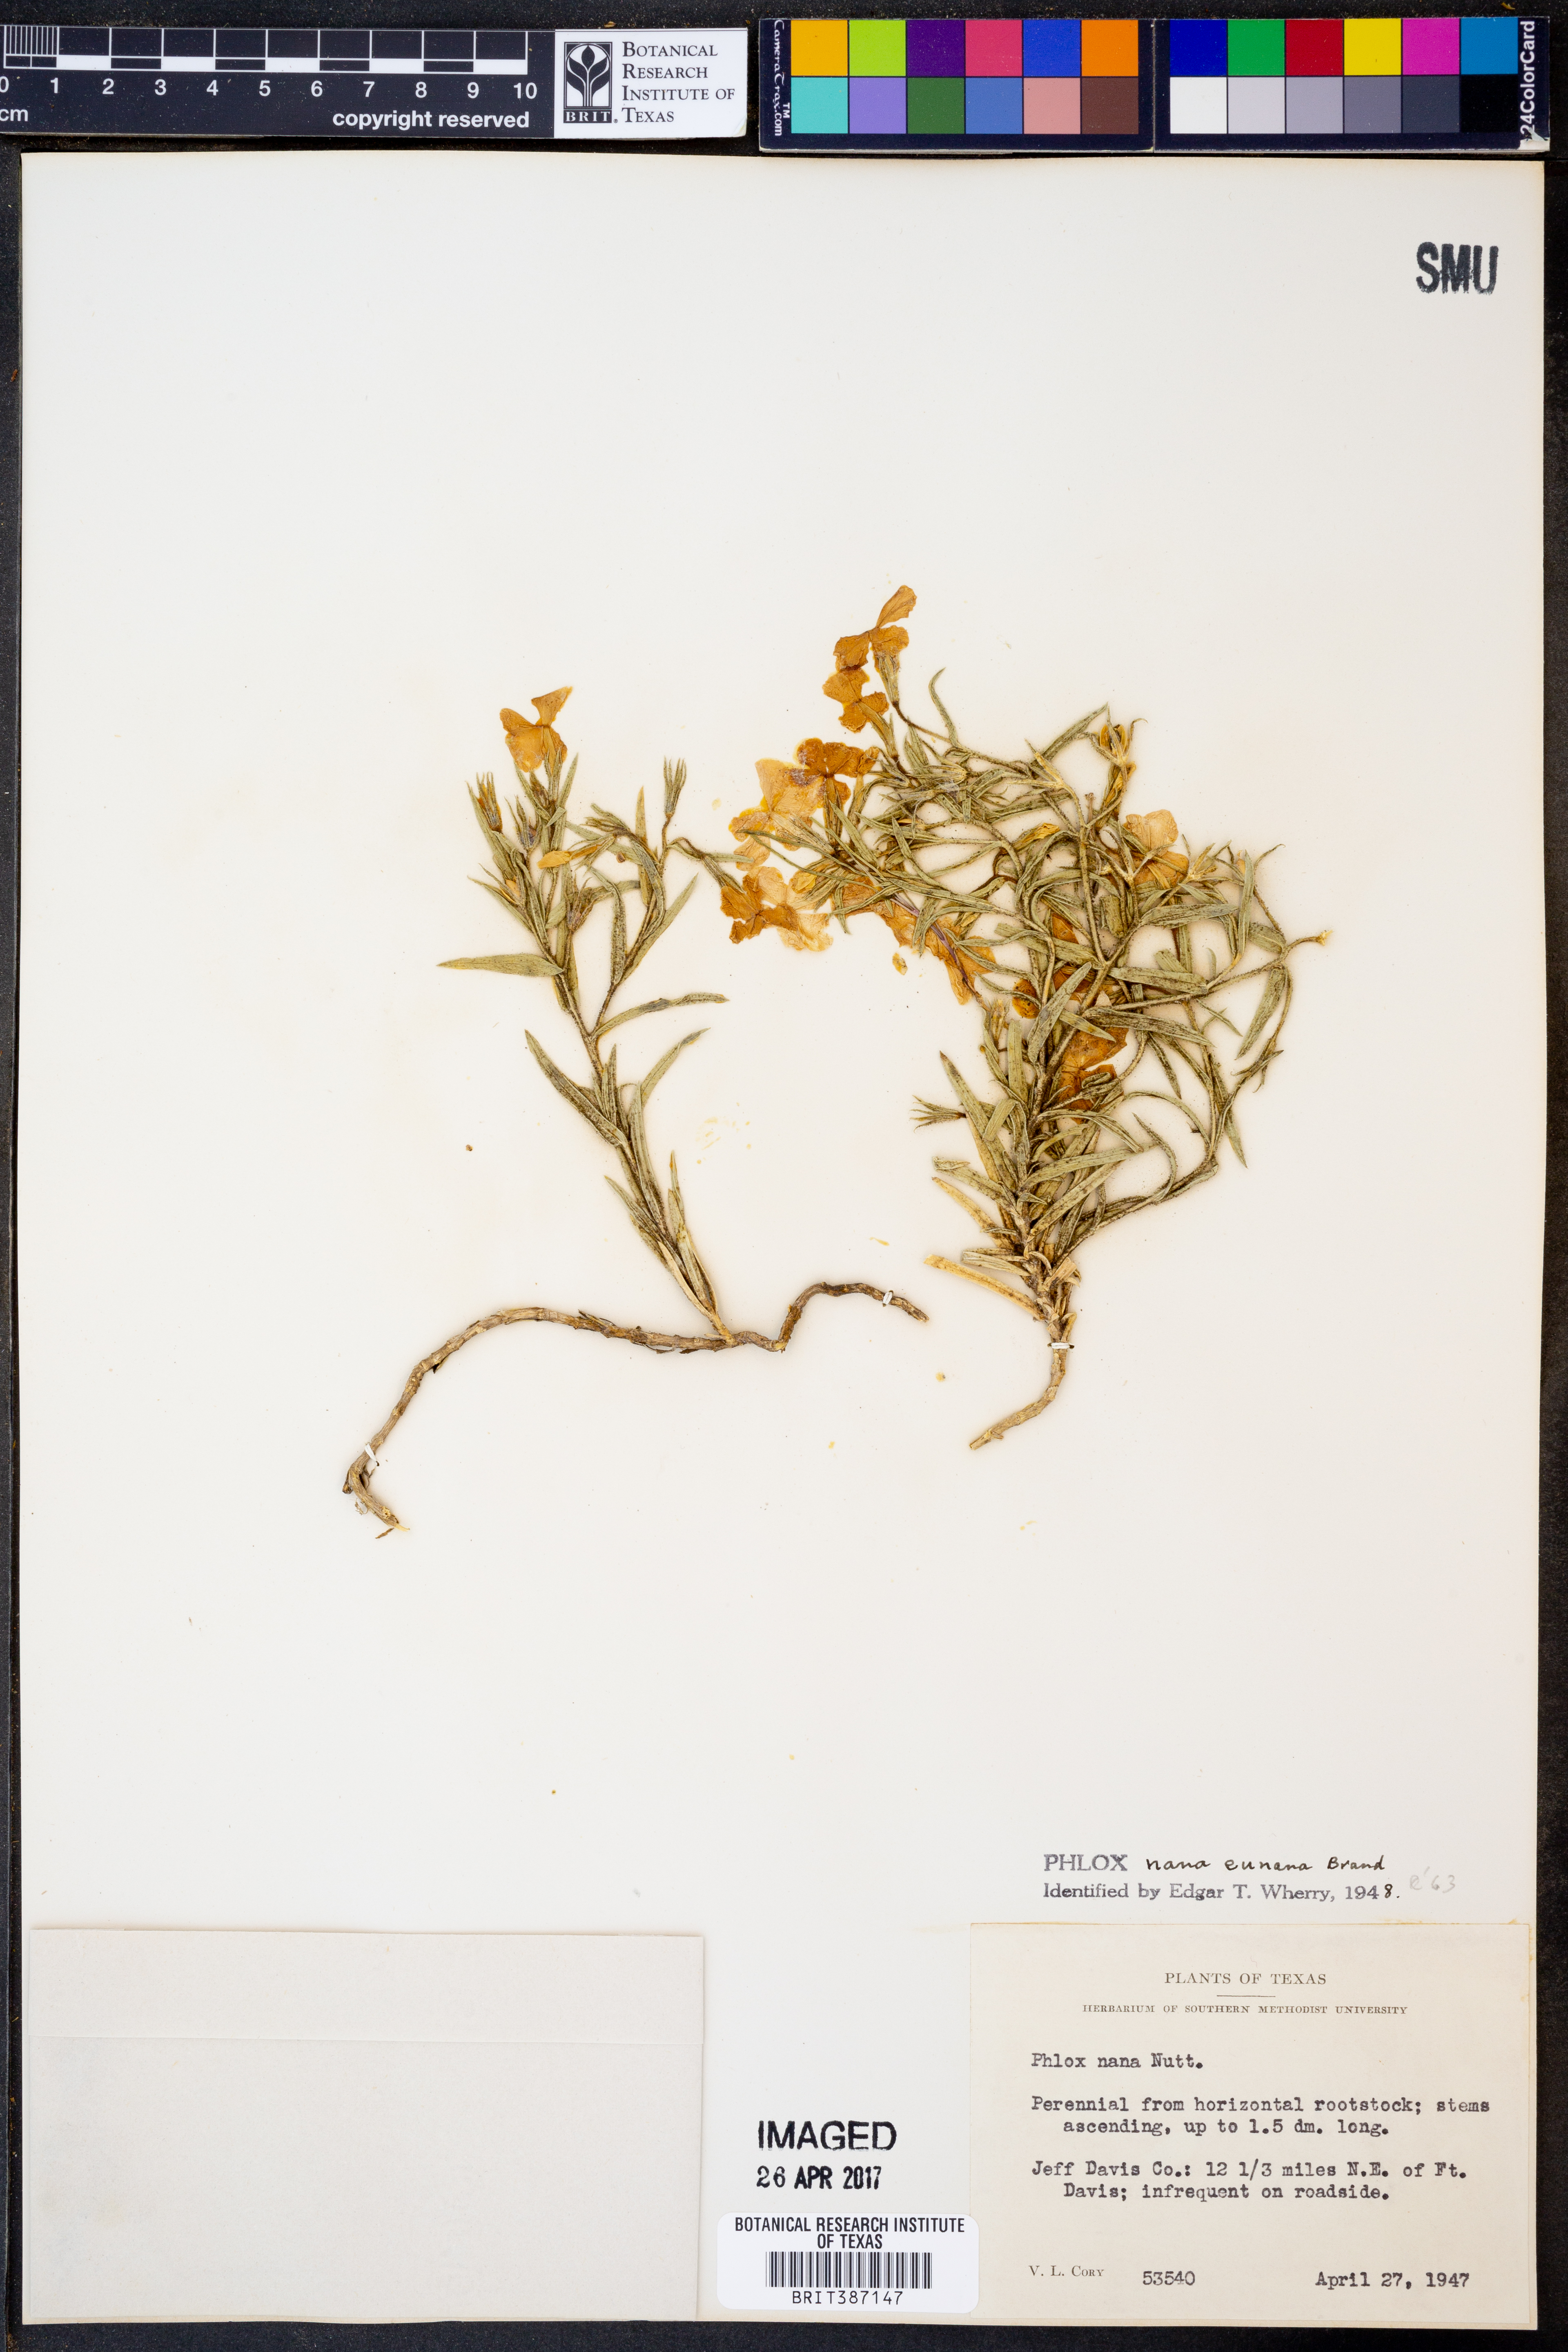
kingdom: Plantae
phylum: Tracheophyta
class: Magnoliopsida
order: Ericales
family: Polemoniaceae
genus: Phlox
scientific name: Phlox nana
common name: Santa fe phlox
